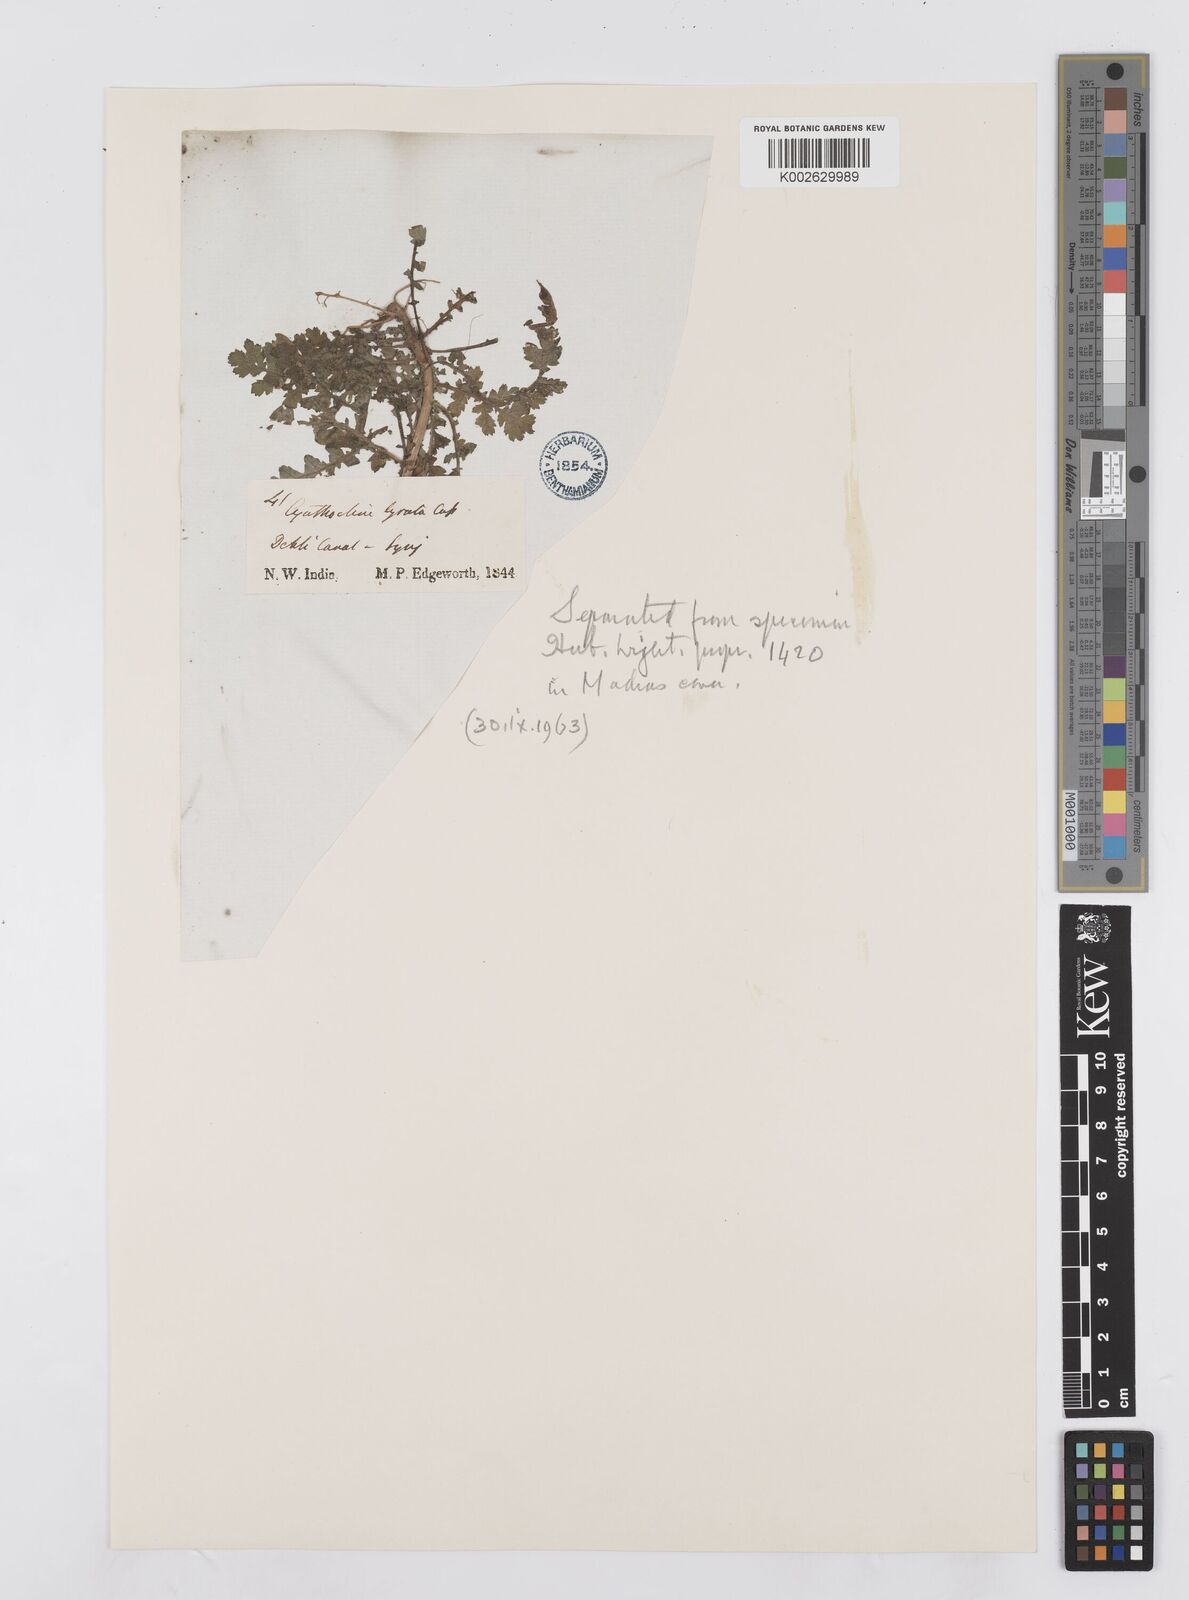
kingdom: Plantae
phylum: Tracheophyta
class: Magnoliopsida
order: Asterales
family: Asteraceae
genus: Cyathocline
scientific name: Cyathocline purpurea
